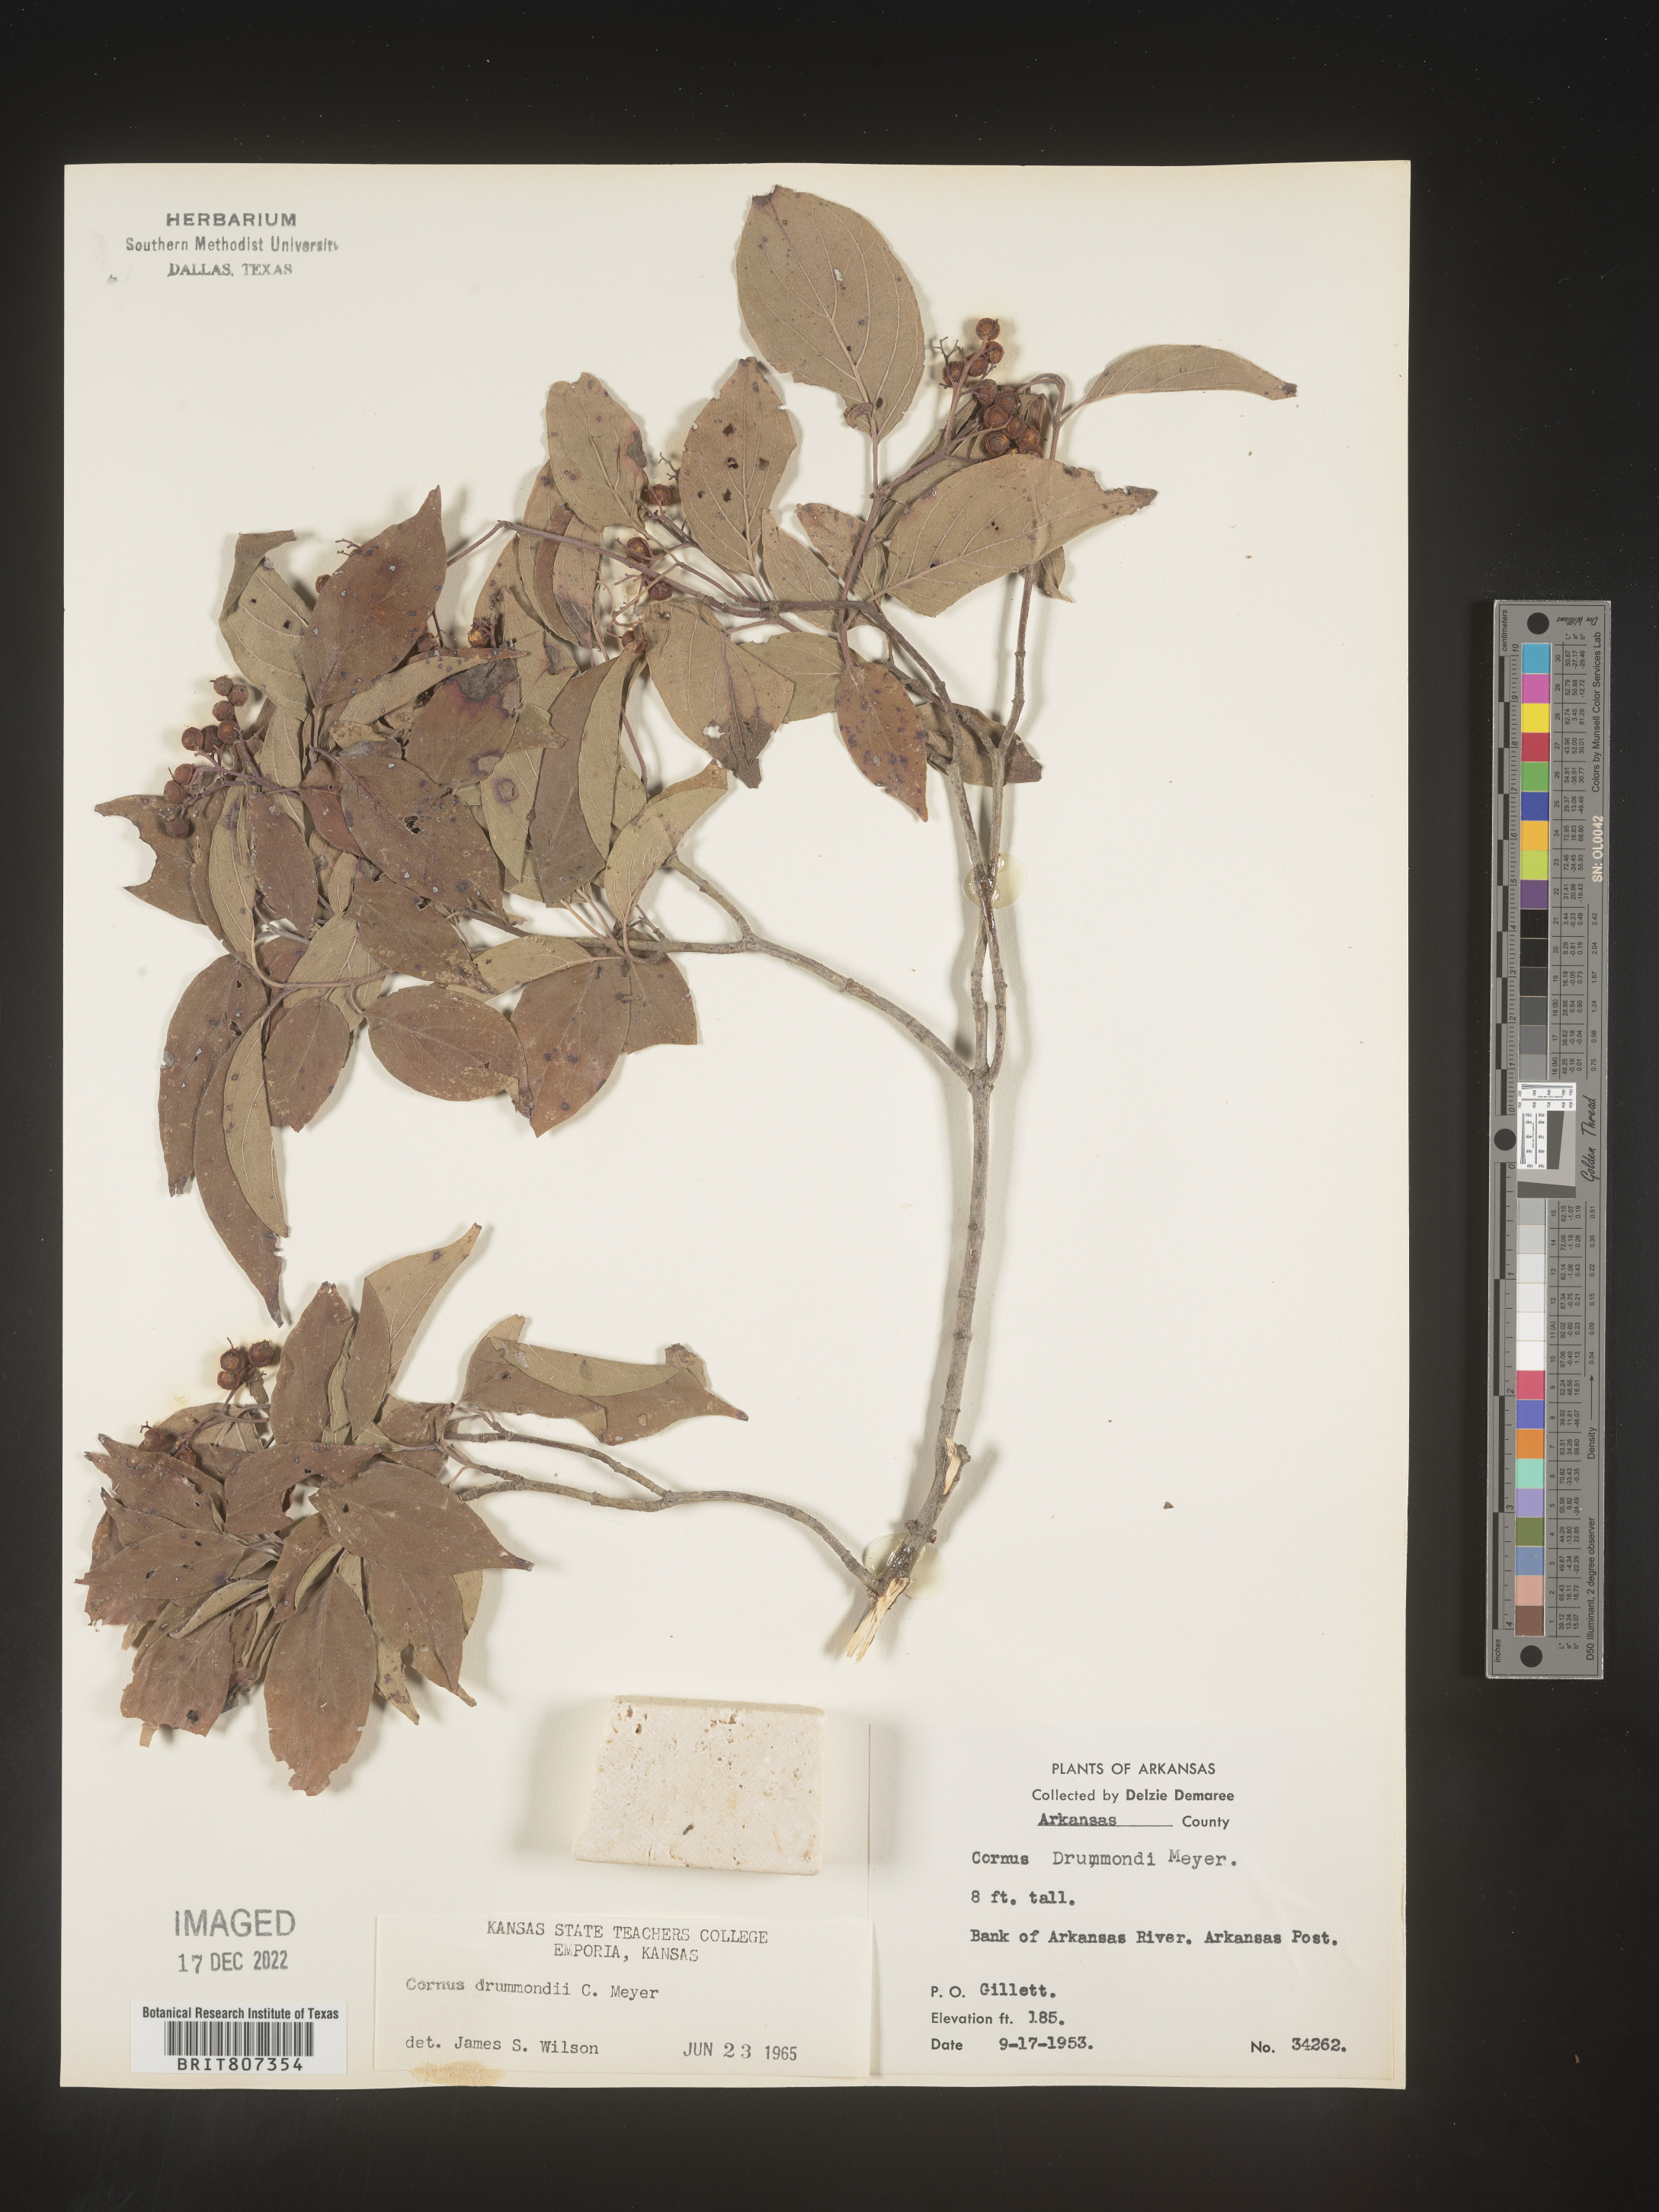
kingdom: Plantae
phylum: Tracheophyta
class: Magnoliopsida
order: Cornales
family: Cornaceae
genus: Cornus
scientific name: Cornus drummondii
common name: Rough-leaf dogwood
